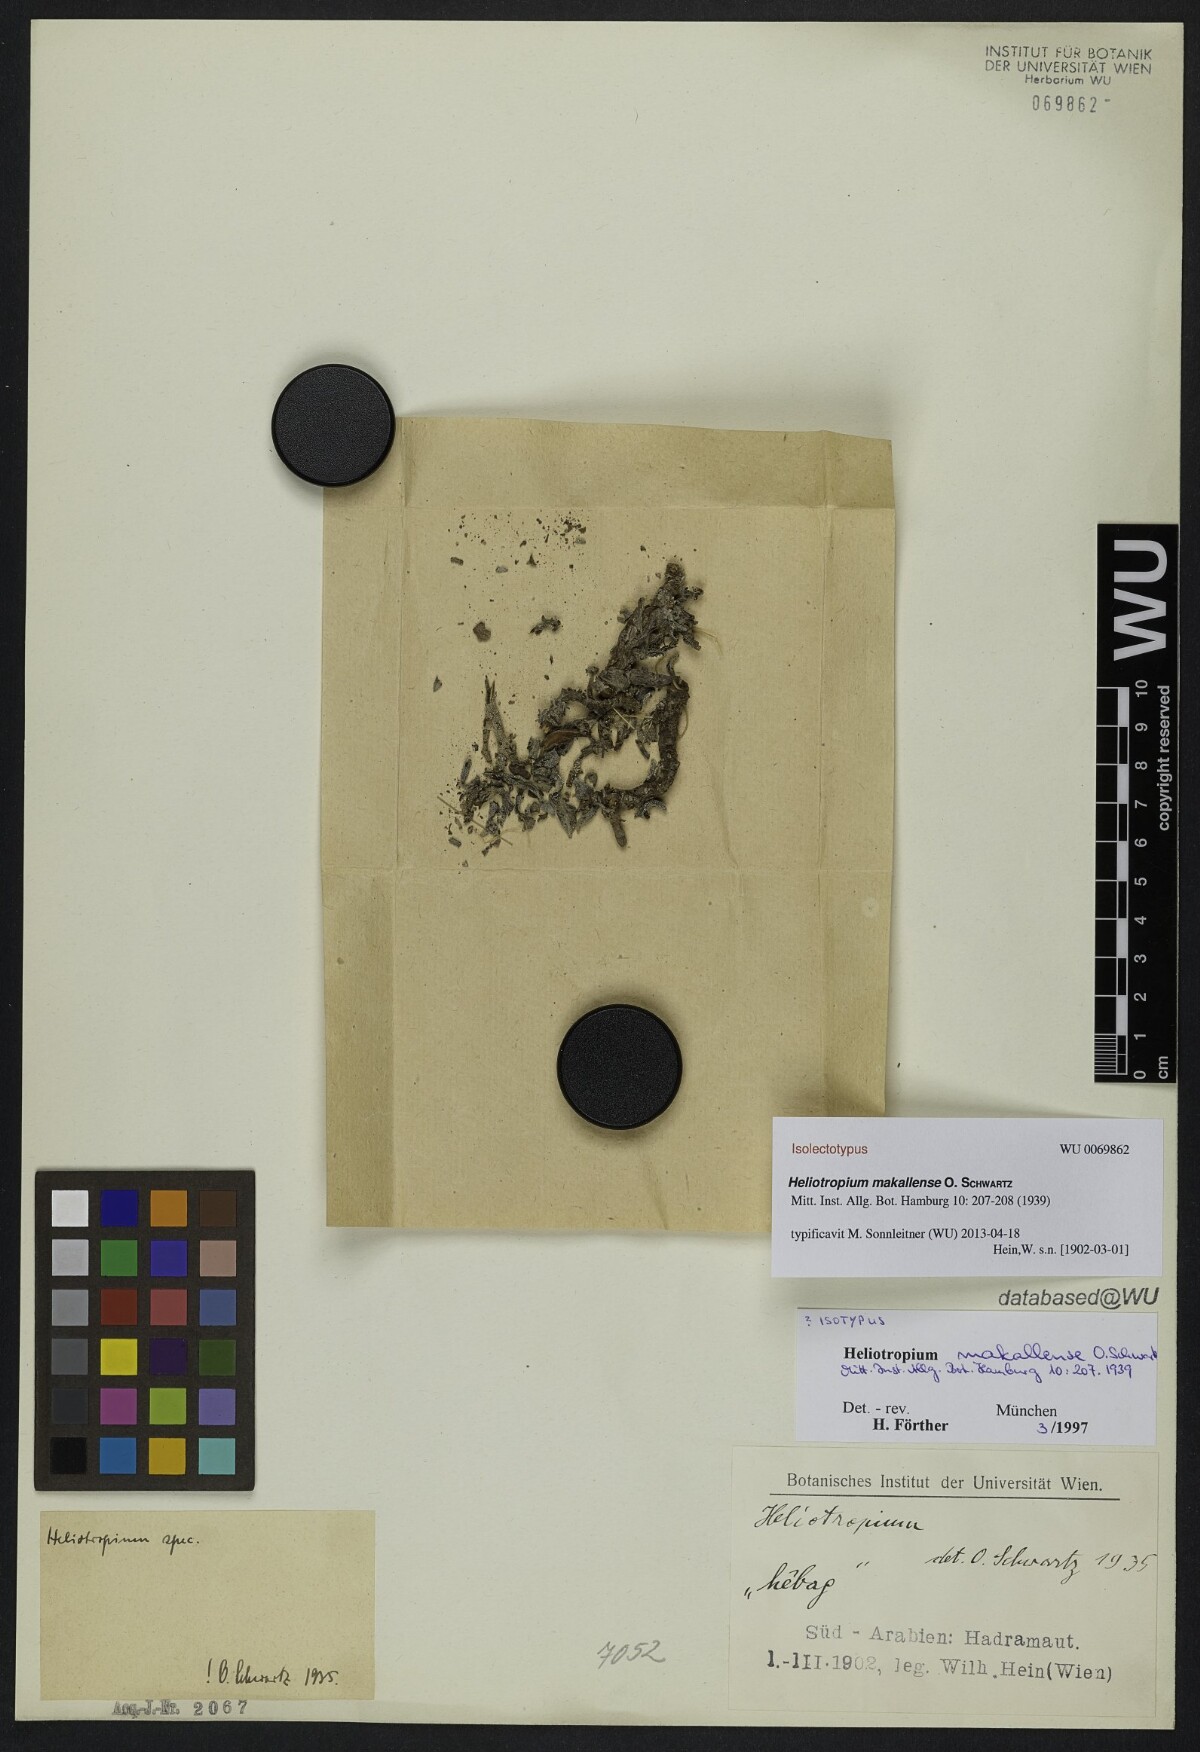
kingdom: Plantae
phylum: Tracheophyta
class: Magnoliopsida
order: Boraginales
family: Heliotropiaceae
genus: Heliotropium
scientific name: Heliotropium bacciferum
